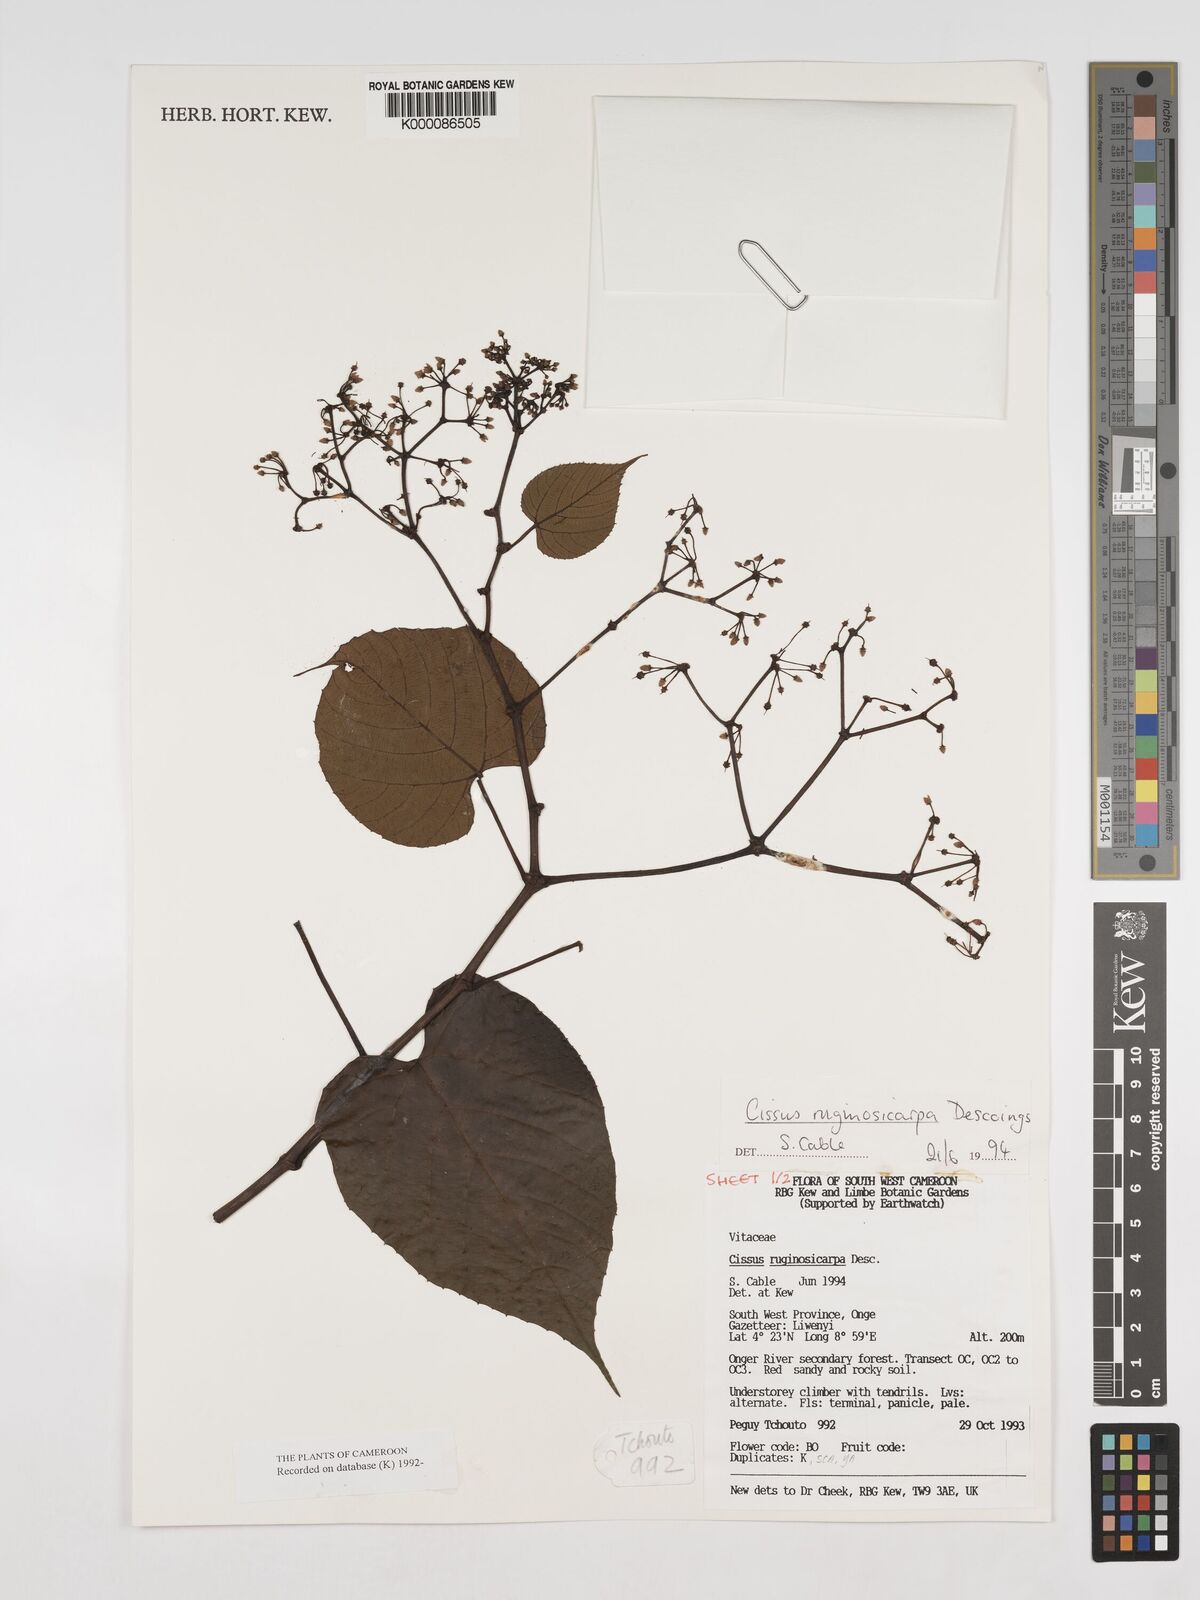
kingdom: Plantae
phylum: Tracheophyta
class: Magnoliopsida
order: Vitales
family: Vitaceae
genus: Cissus
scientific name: Cissus ruginosicarpa
